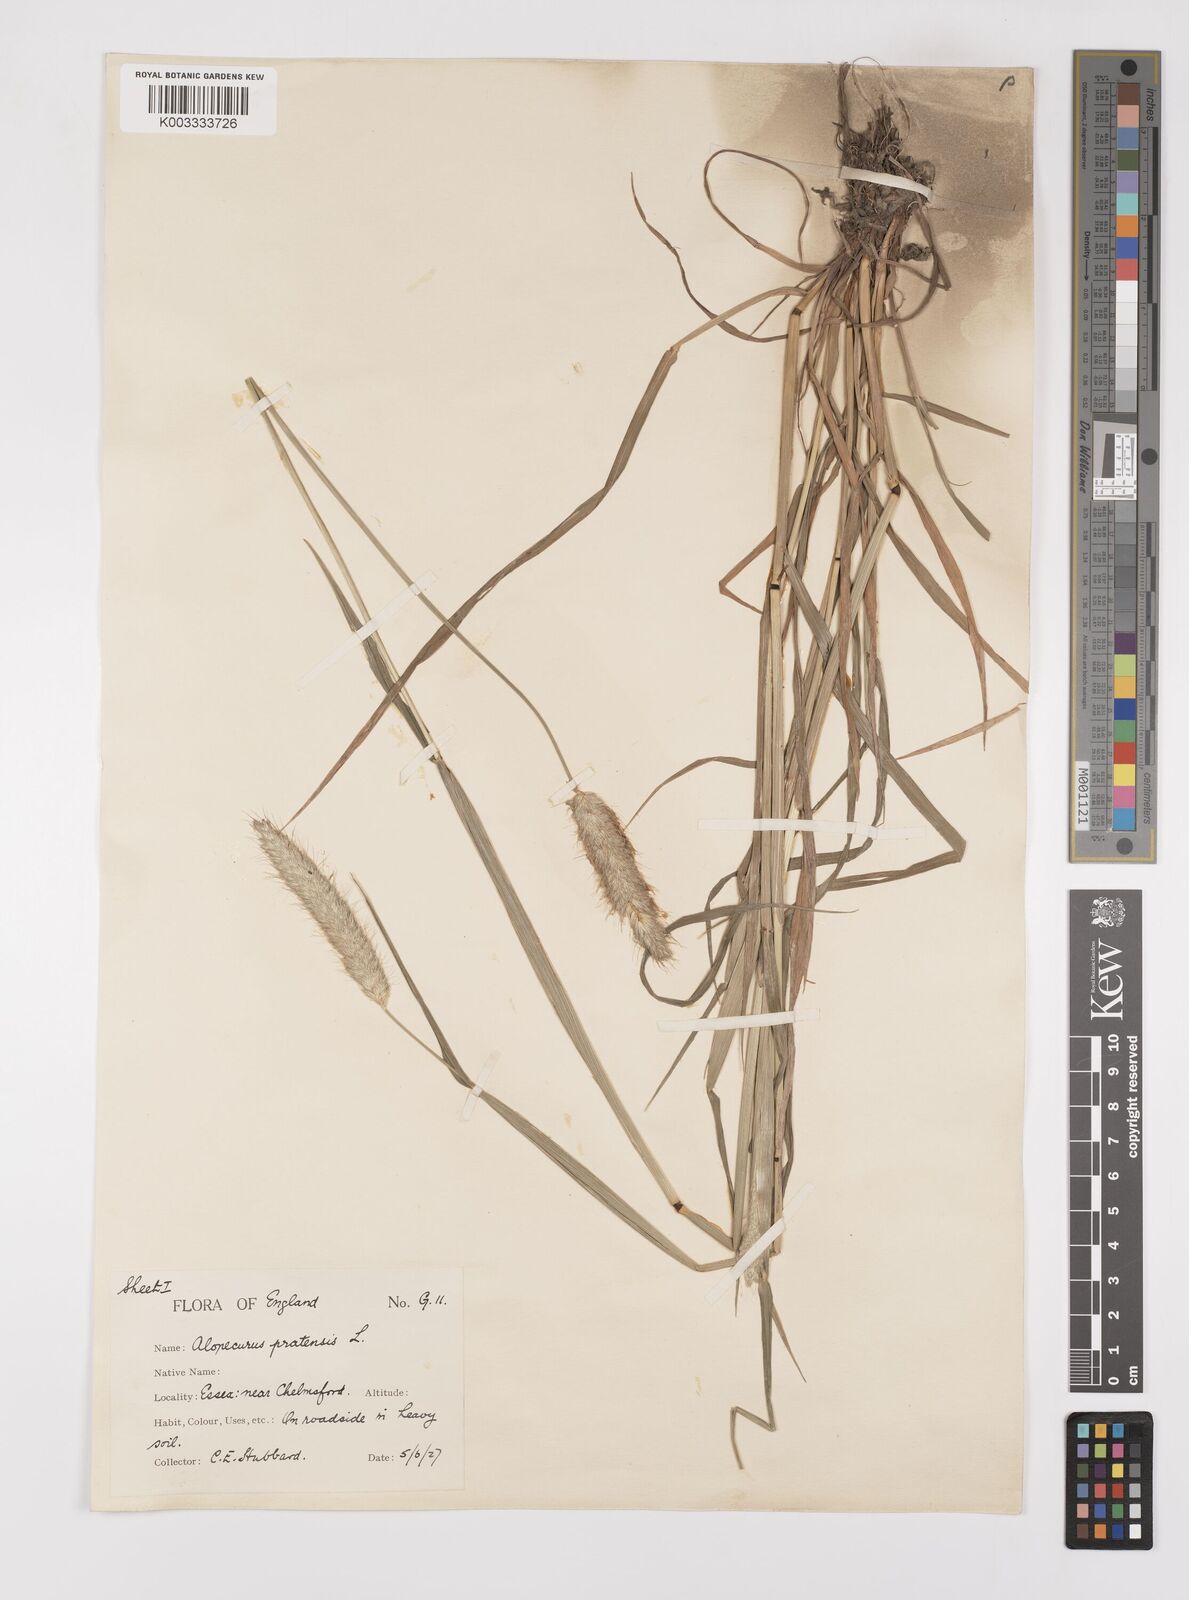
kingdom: Plantae
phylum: Tracheophyta
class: Liliopsida
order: Poales
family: Poaceae
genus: Alopecurus
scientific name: Alopecurus pratensis
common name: Meadow foxtail
